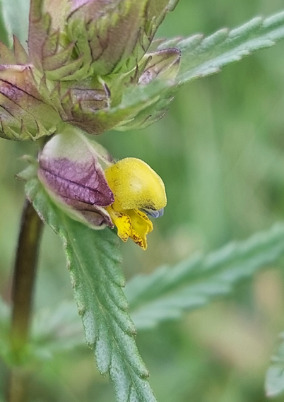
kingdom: Plantae
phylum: Tracheophyta
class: Magnoliopsida
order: Lamiales
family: Orobanchaceae
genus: Rhinanthus
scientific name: Rhinanthus minor
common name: Liden skjaller
